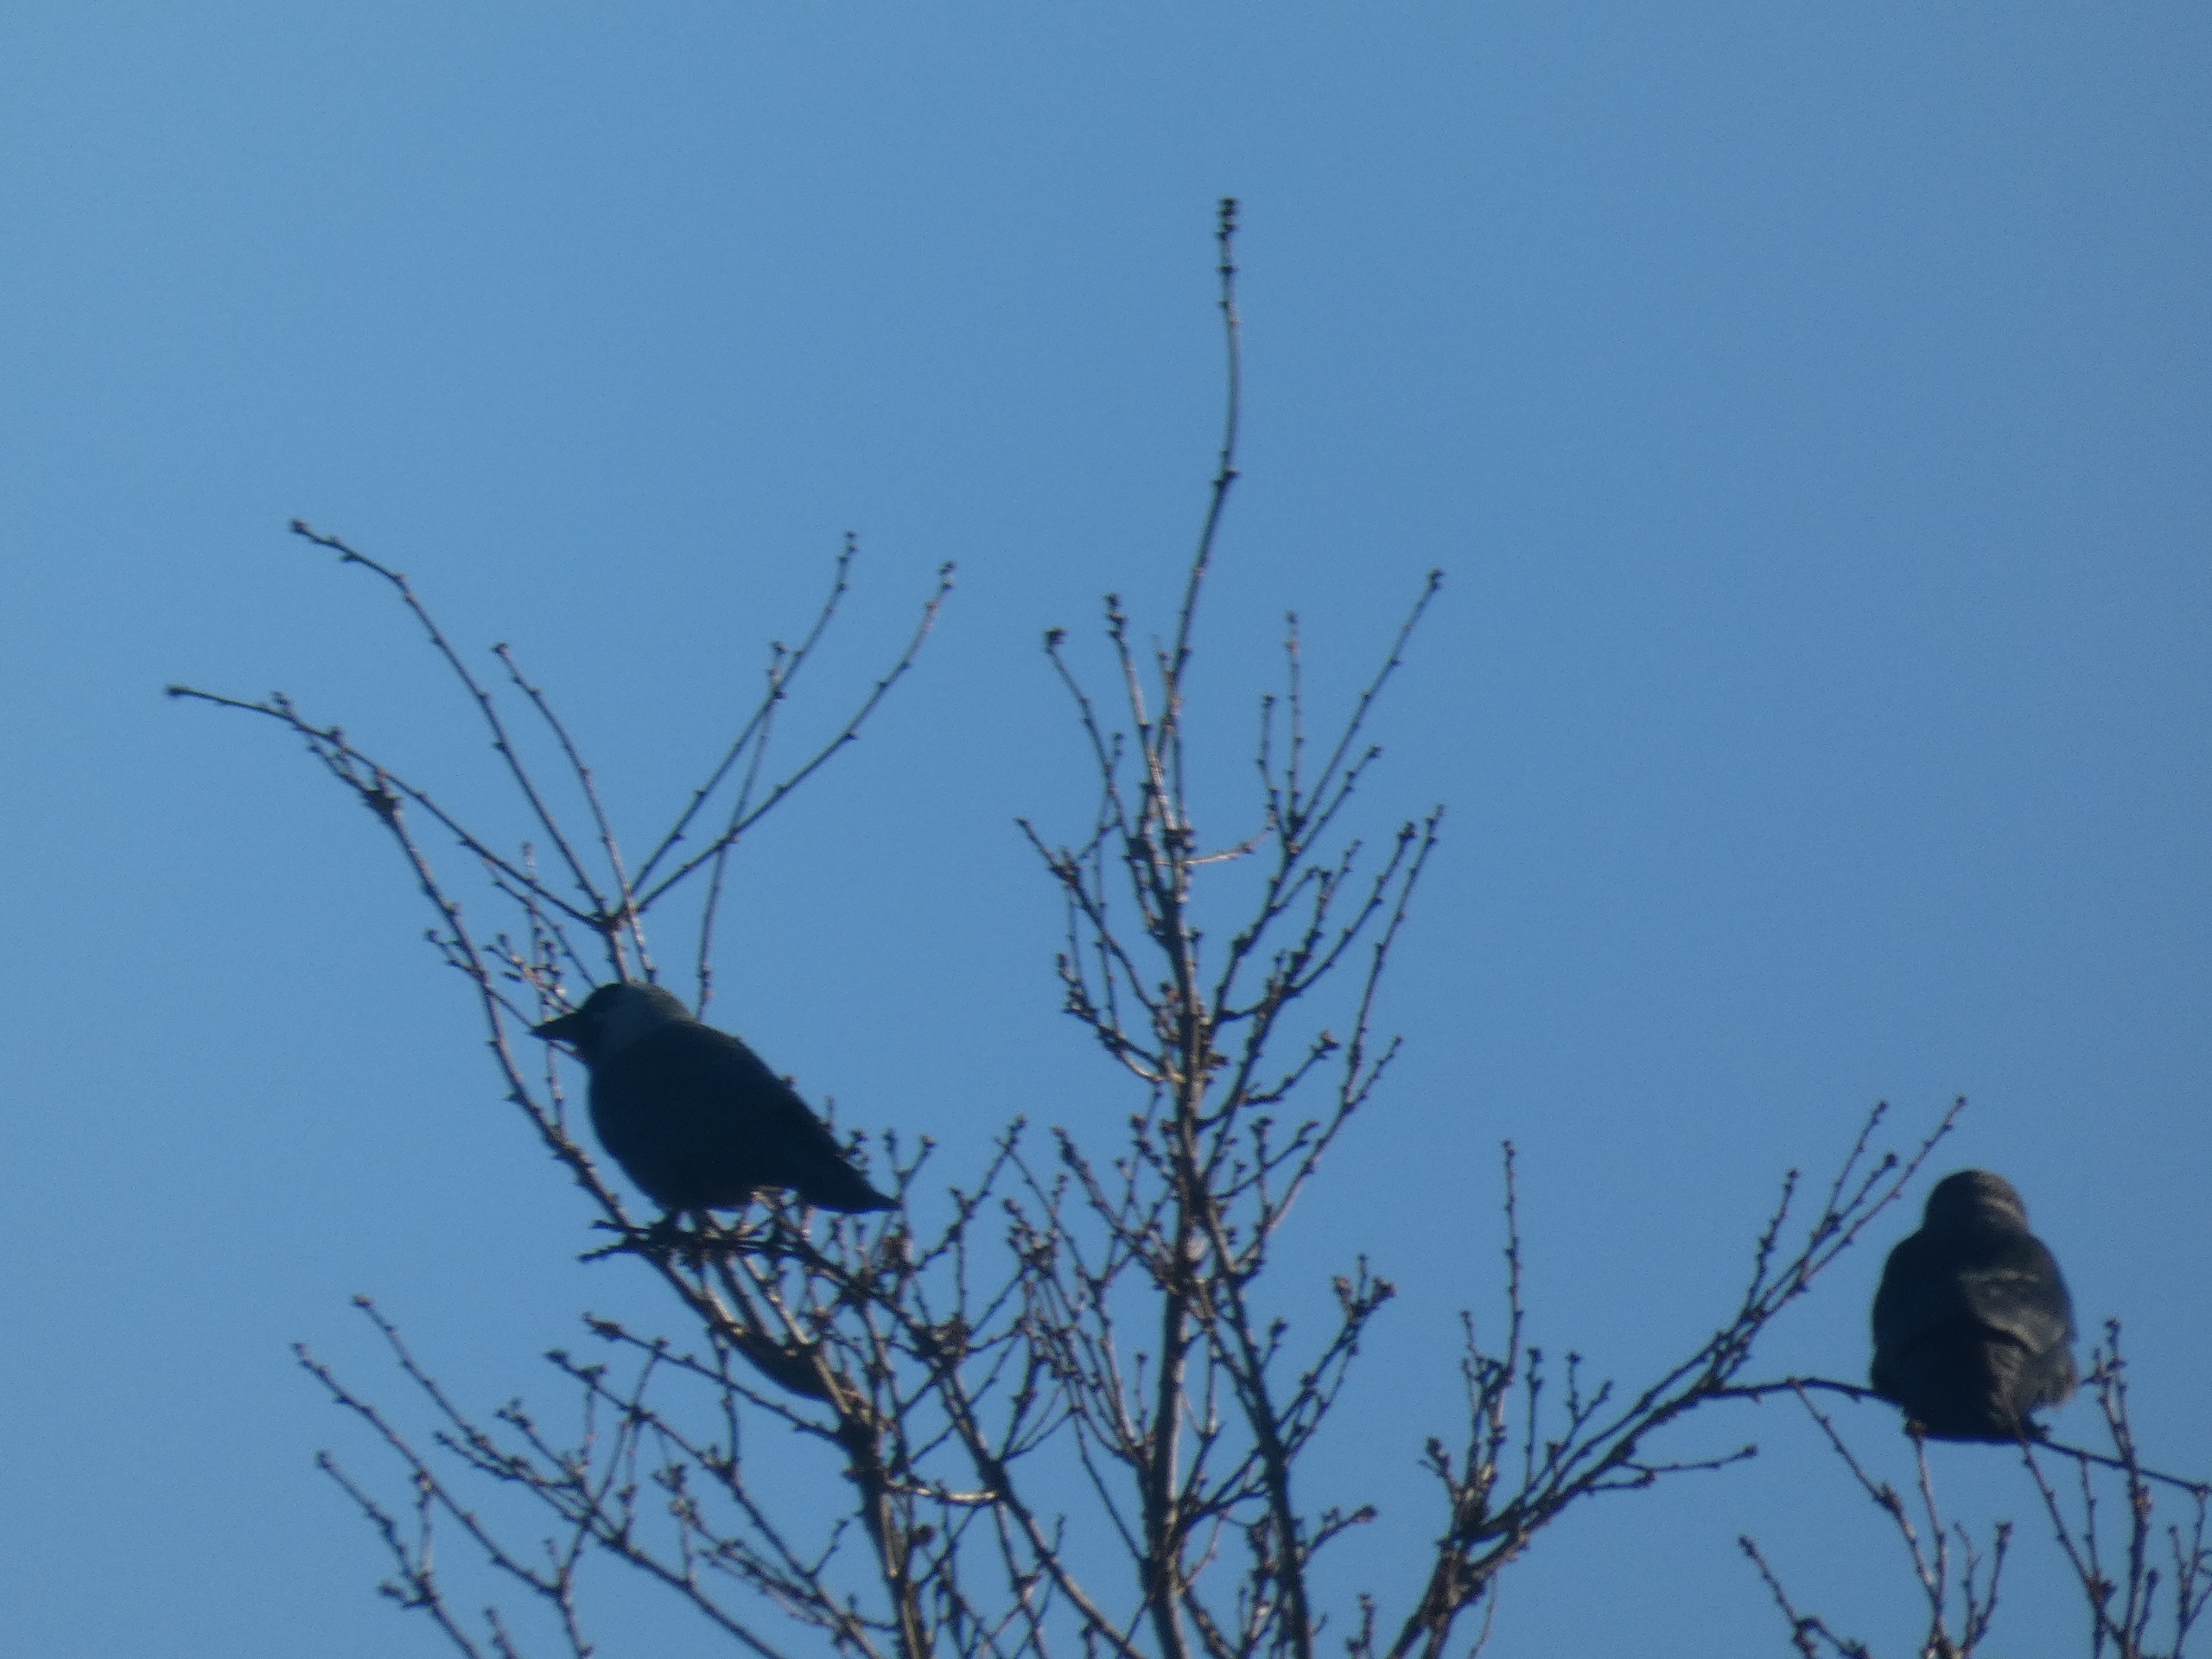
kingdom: Animalia
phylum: Chordata
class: Aves
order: Passeriformes
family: Corvidae
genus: Coloeus
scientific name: Coloeus monedula
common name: Allike
